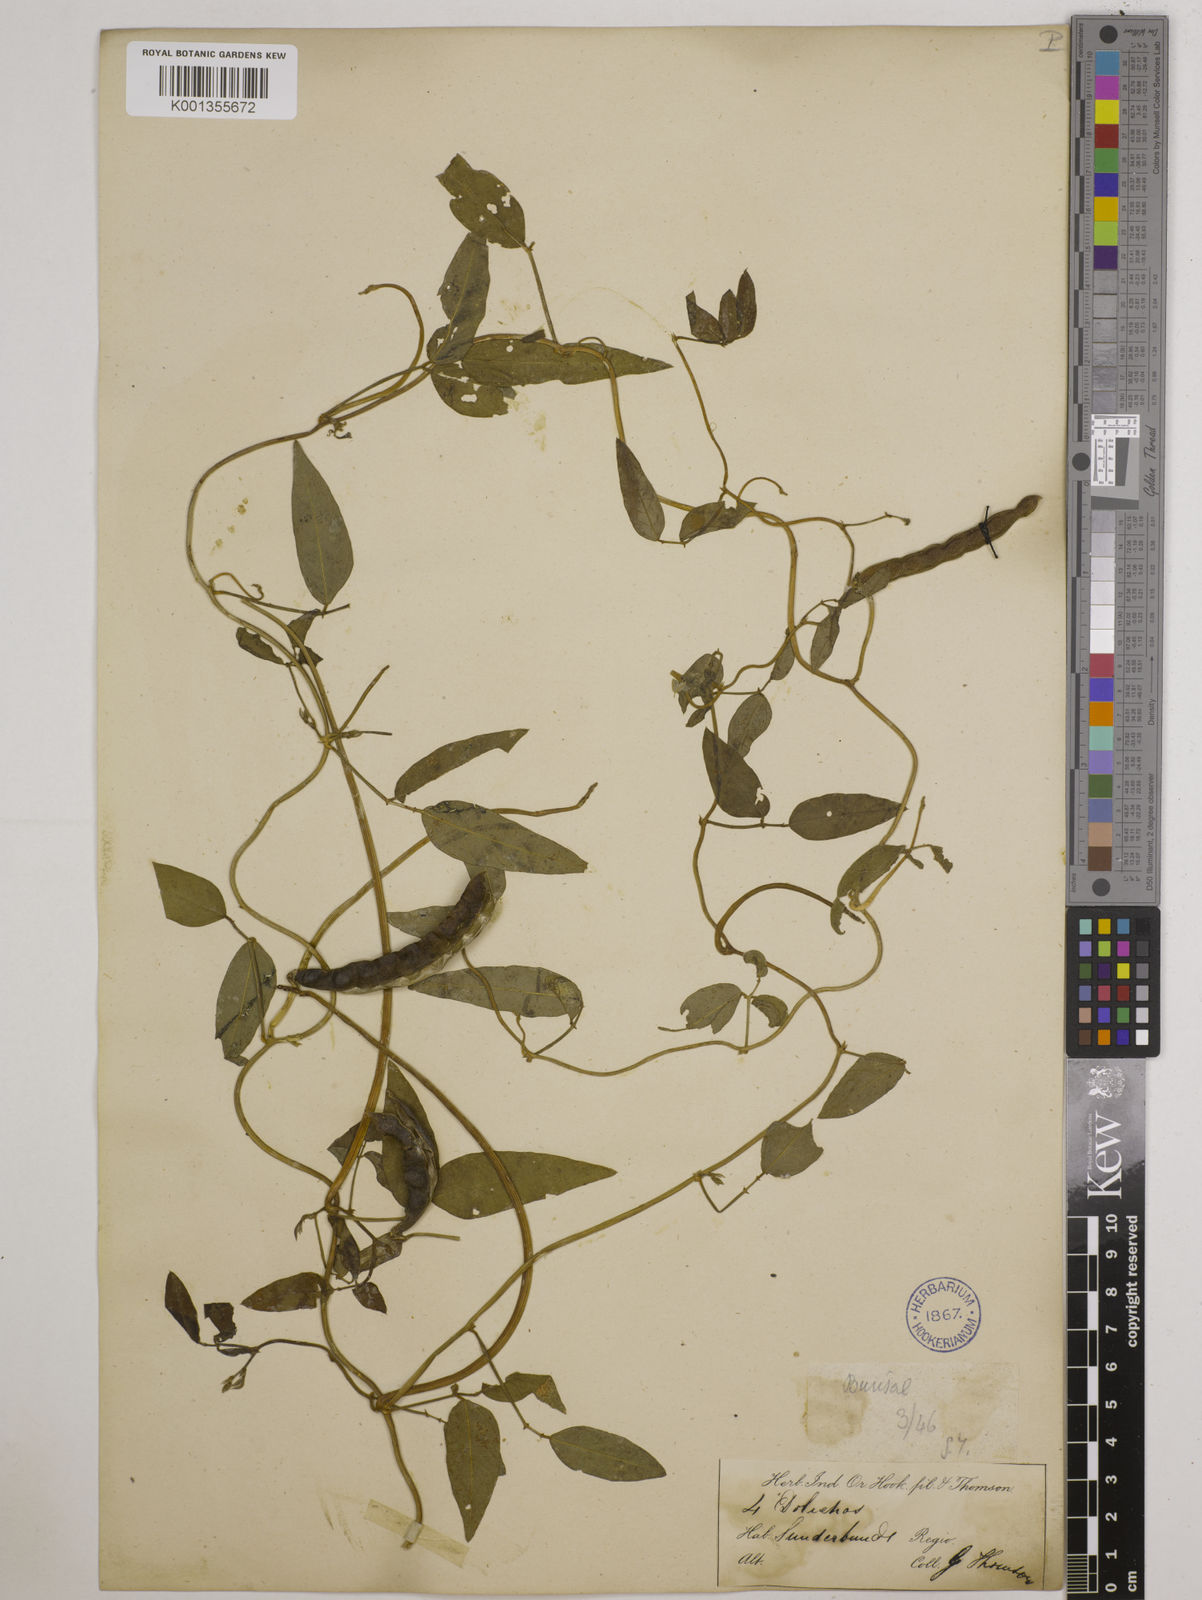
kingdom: Plantae
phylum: Tracheophyta
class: Magnoliopsida
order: Fabales
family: Fabaceae
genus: Vigna
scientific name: Vigna luteola
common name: Hairypod cowpea
